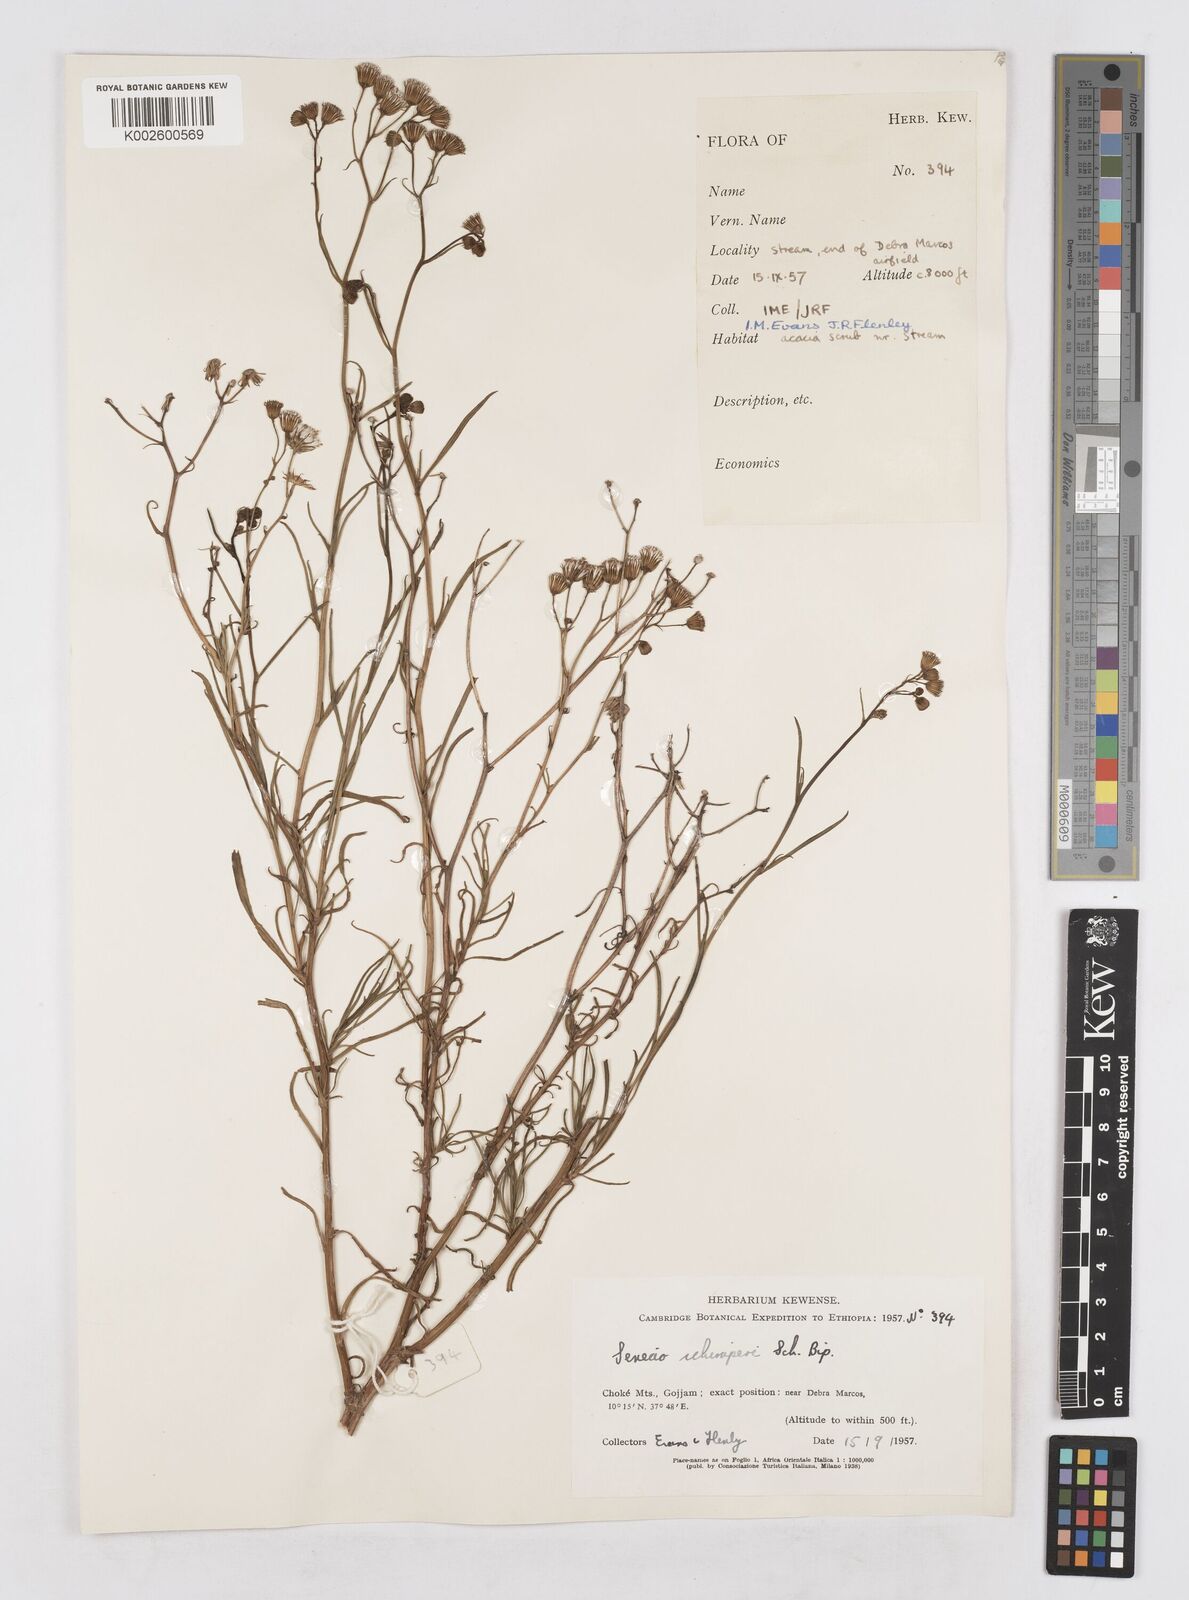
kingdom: Plantae
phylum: Tracheophyta
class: Magnoliopsida
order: Asterales
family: Asteraceae
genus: Senecio
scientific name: Senecio schimperi
